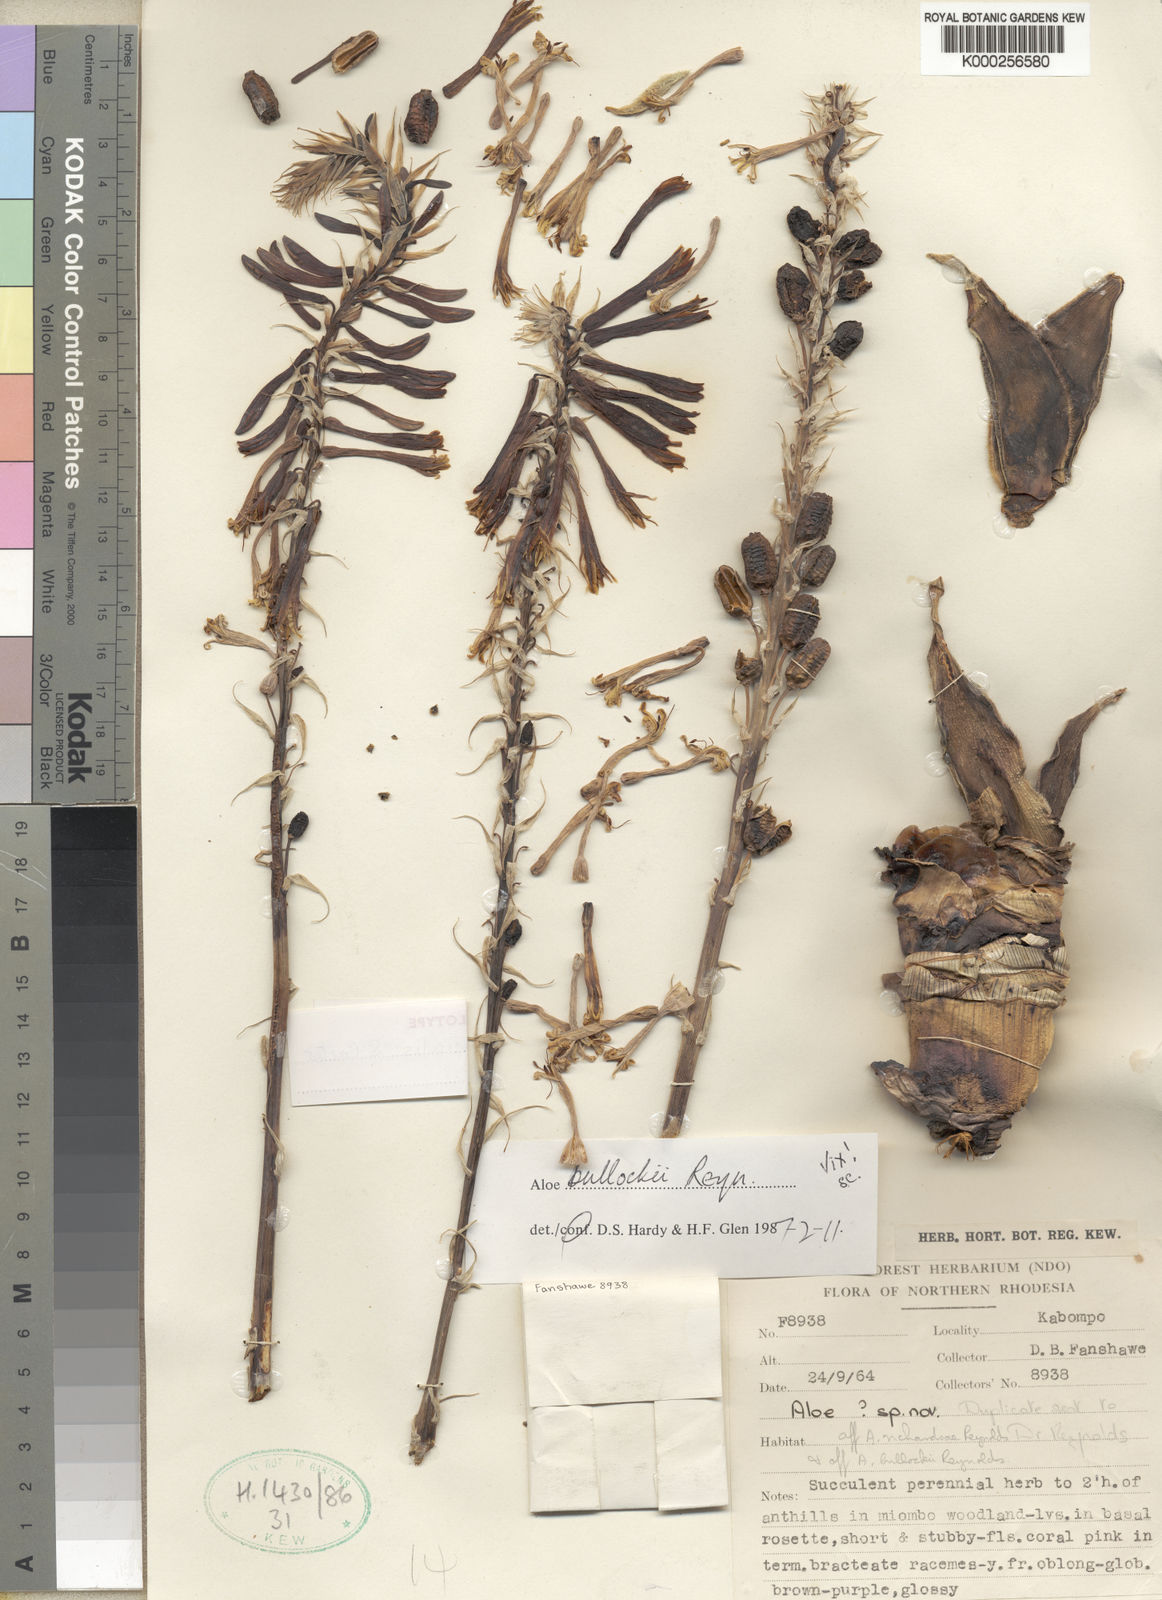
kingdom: Plantae
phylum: Tracheophyta
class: Liliopsida
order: Asparagales
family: Asphodelaceae
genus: Aloe
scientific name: Aloe fimbrialis
